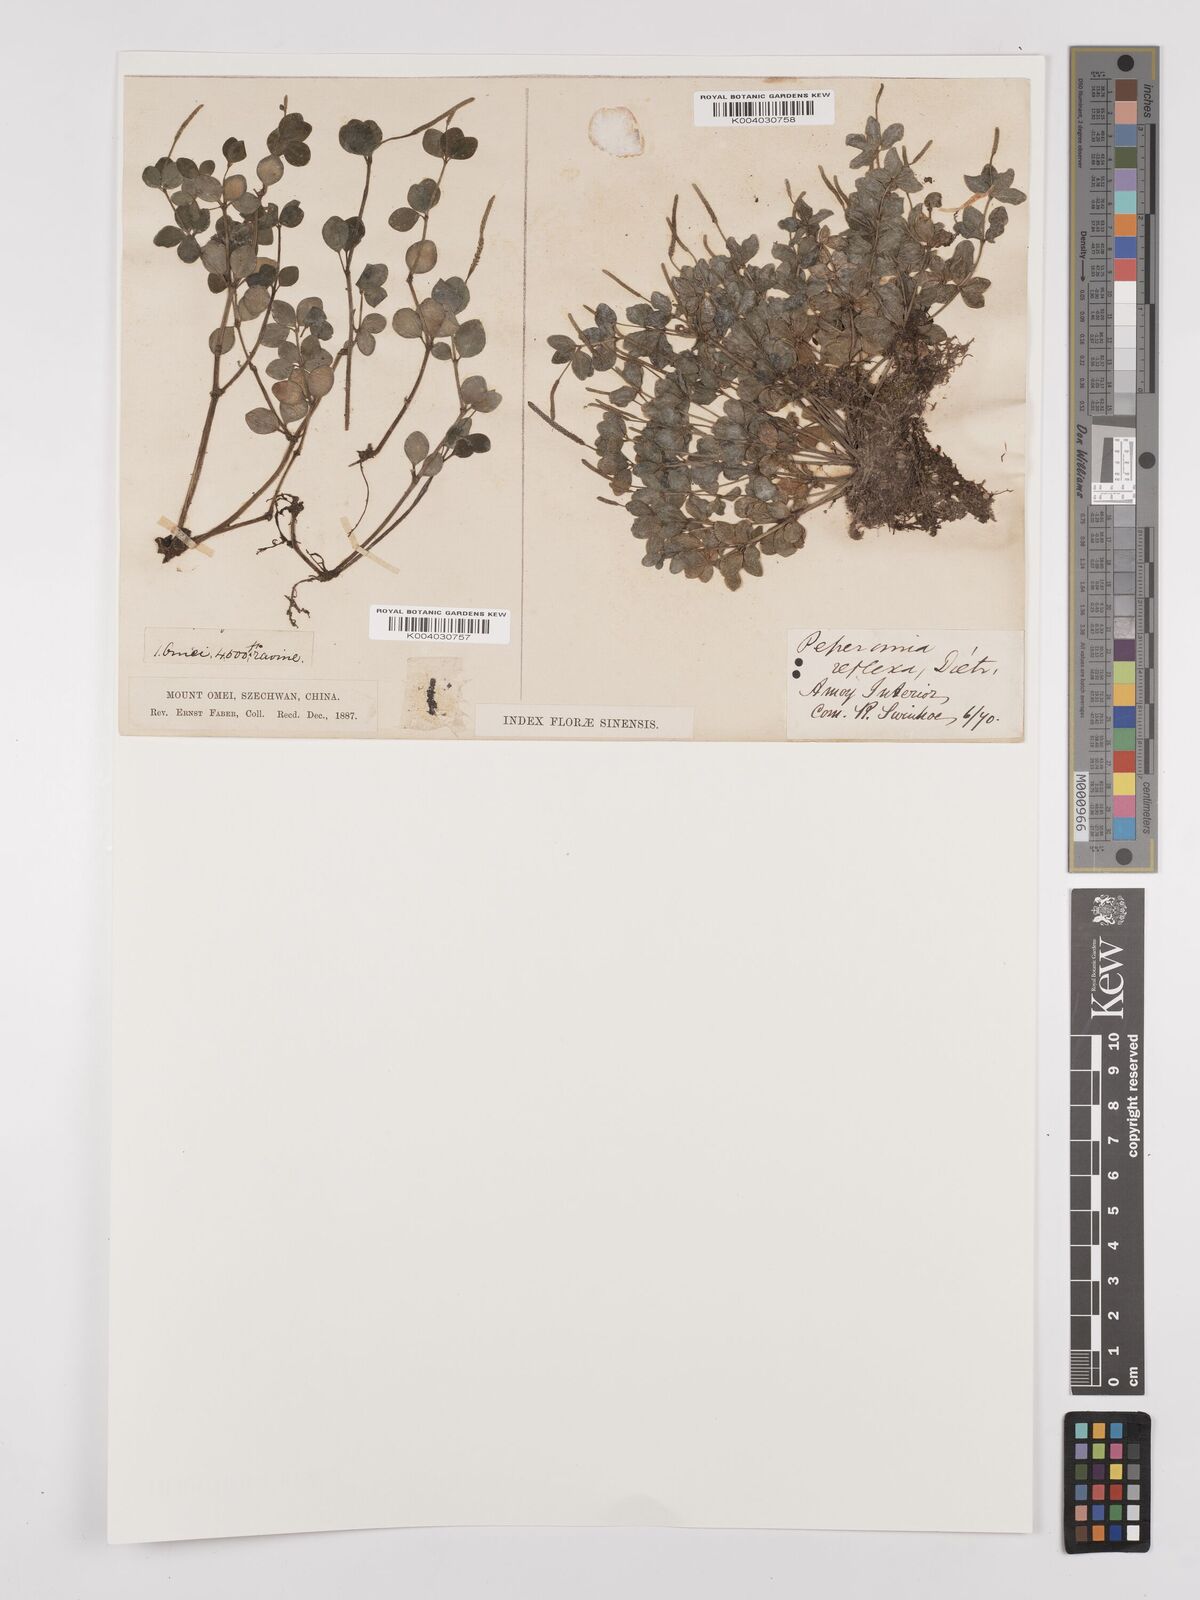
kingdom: Plantae
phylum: Tracheophyta
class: Magnoliopsida
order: Piperales
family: Piperaceae
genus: Peperomia
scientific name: Peperomia tetraphylla
